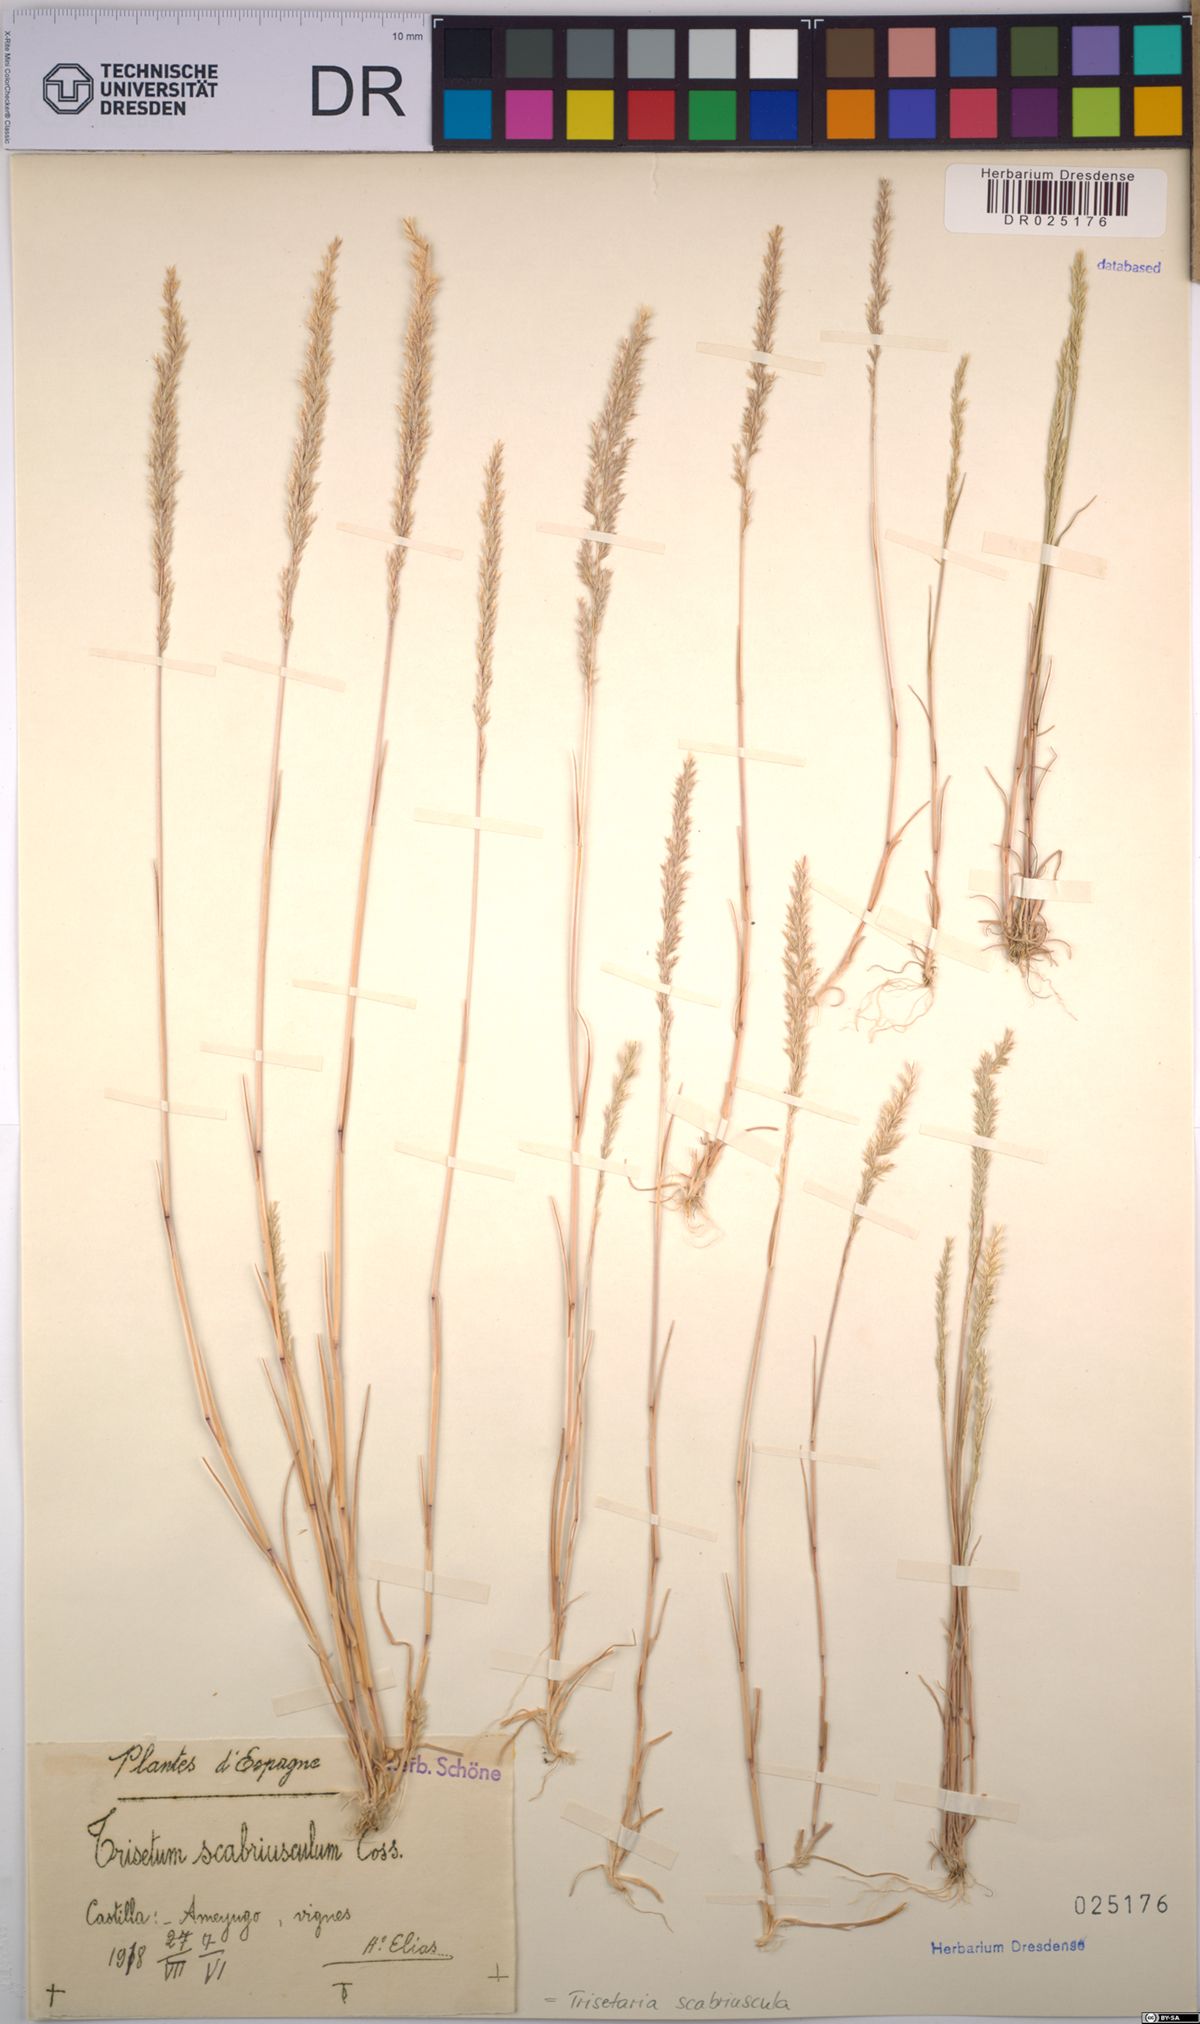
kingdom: Plantae
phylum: Tracheophyta
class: Liliopsida
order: Poales
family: Poaceae
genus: Trisetaria
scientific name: Trisetaria scabriuscula
